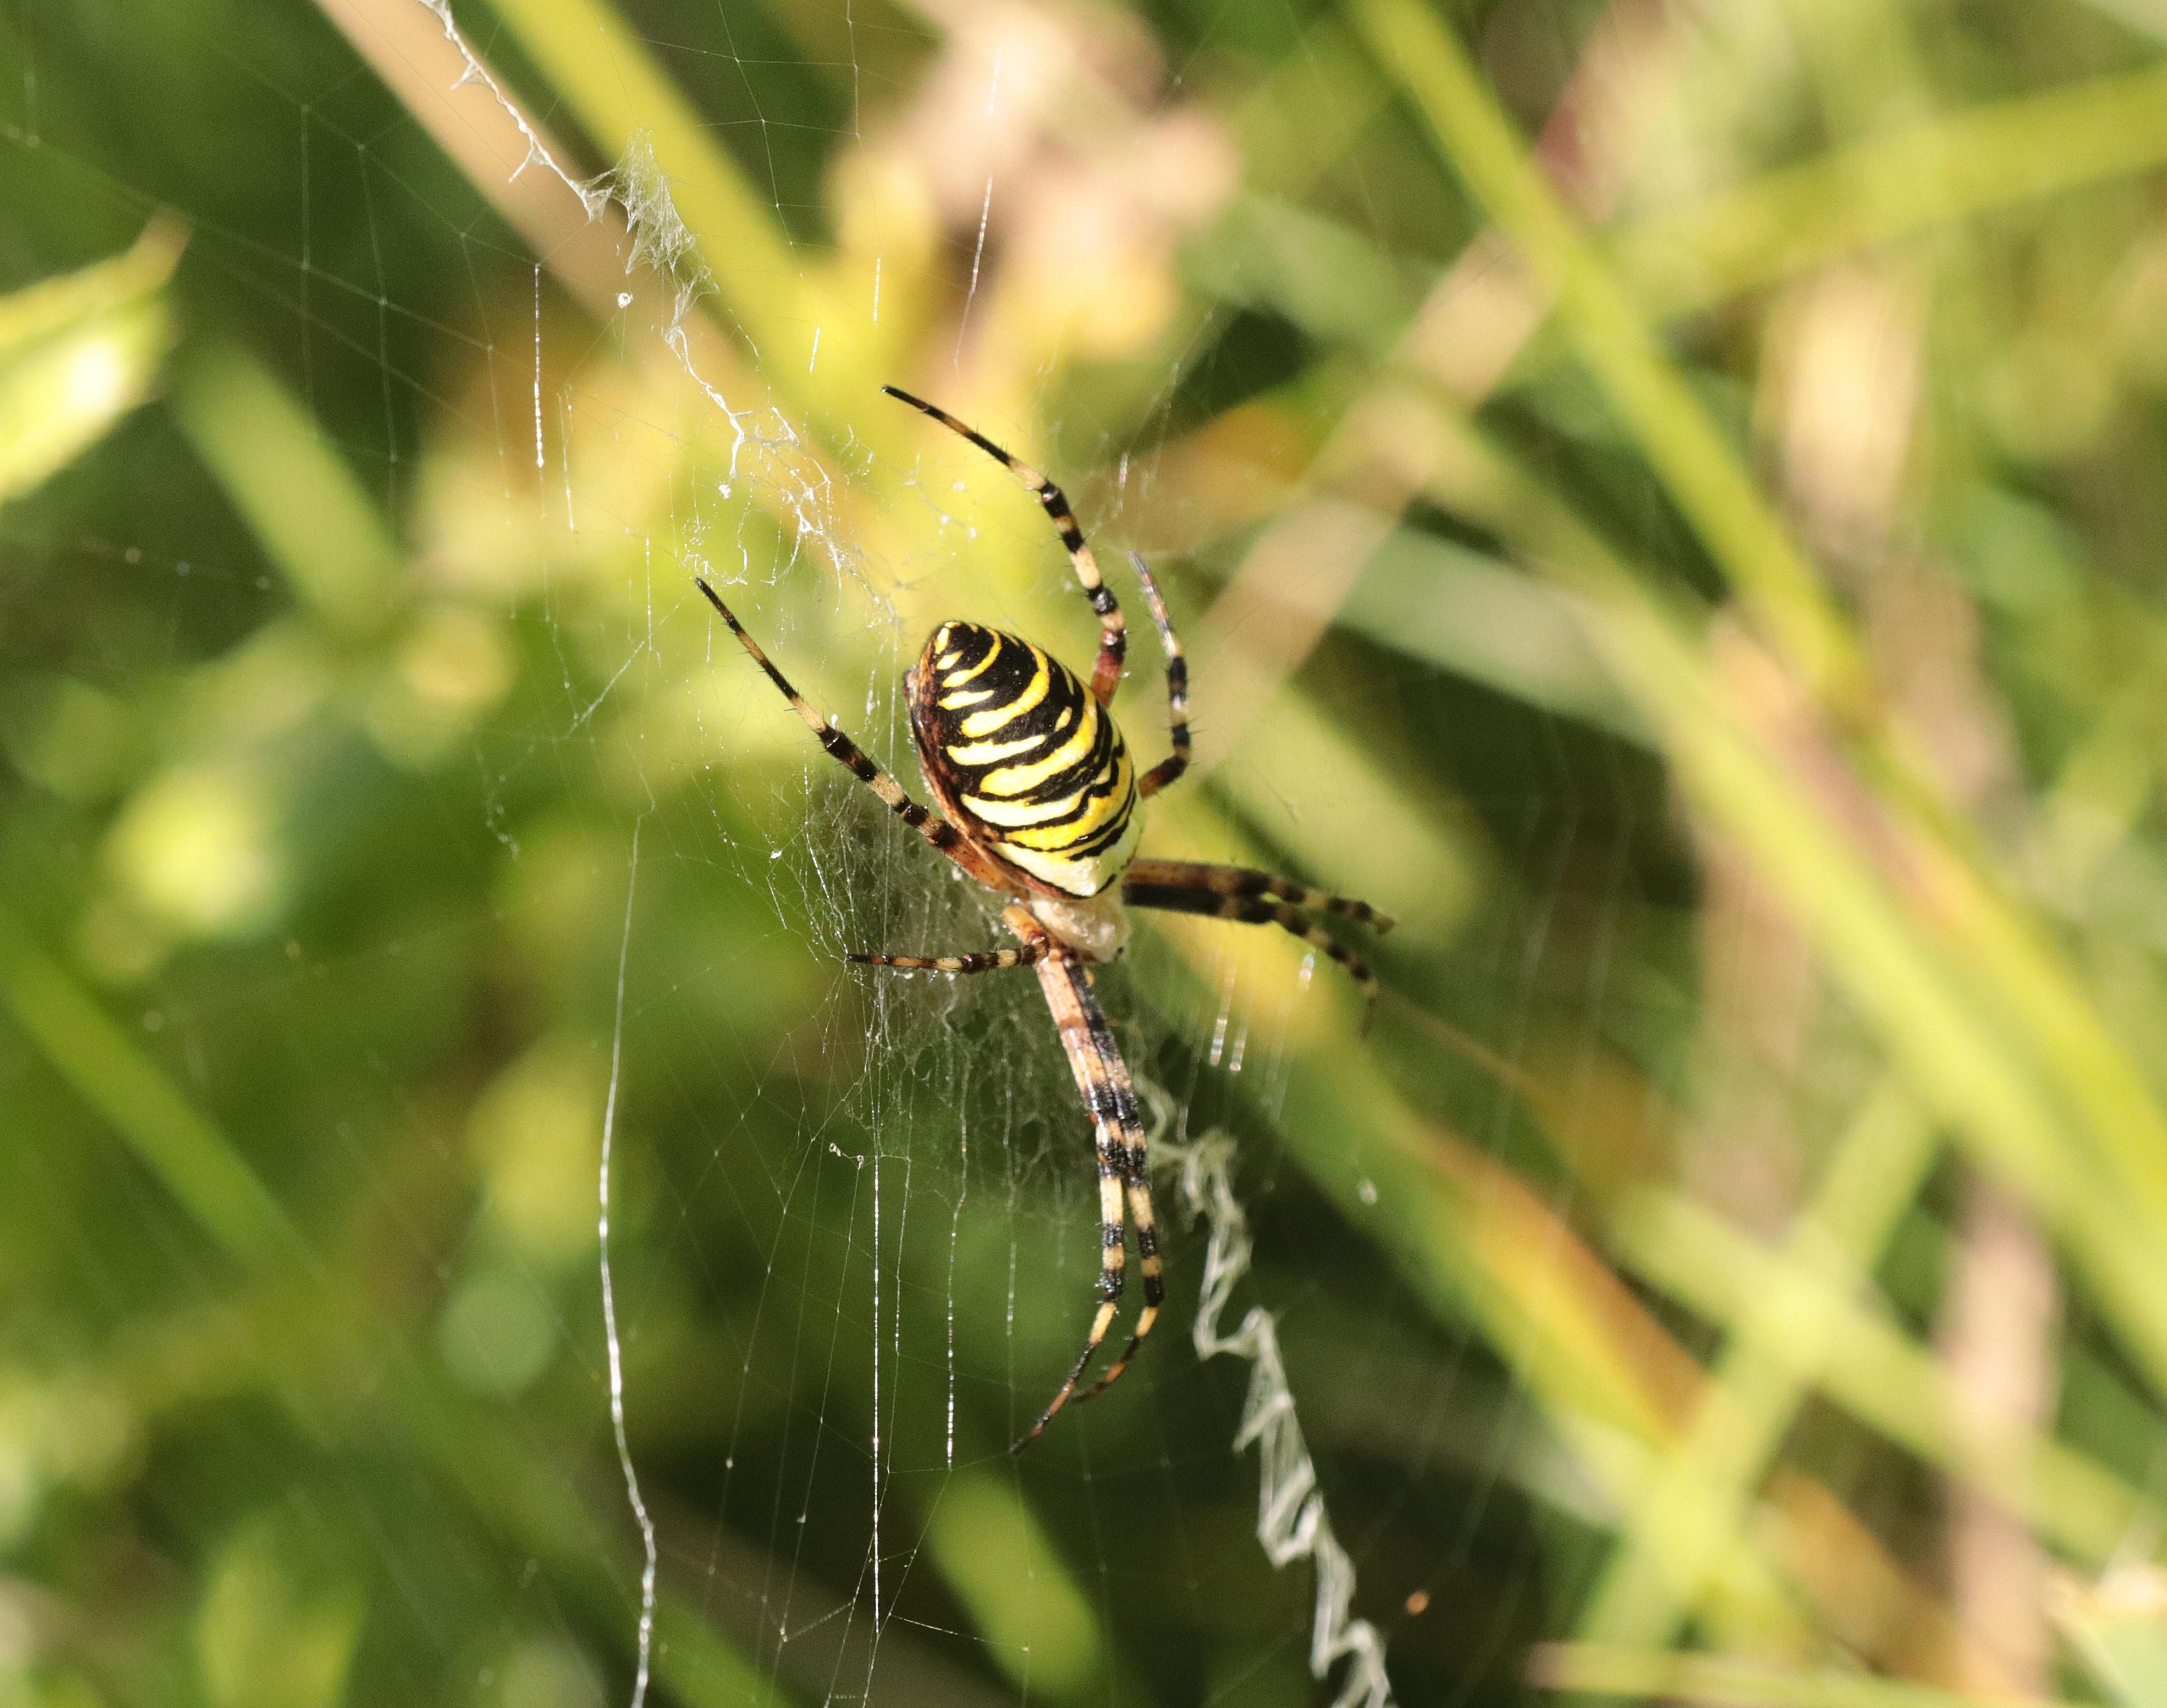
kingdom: Animalia
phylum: Arthropoda
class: Arachnida
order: Araneae
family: Araneidae
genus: Argiope
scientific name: Argiope bruennichi
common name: Hvepseedderkop
